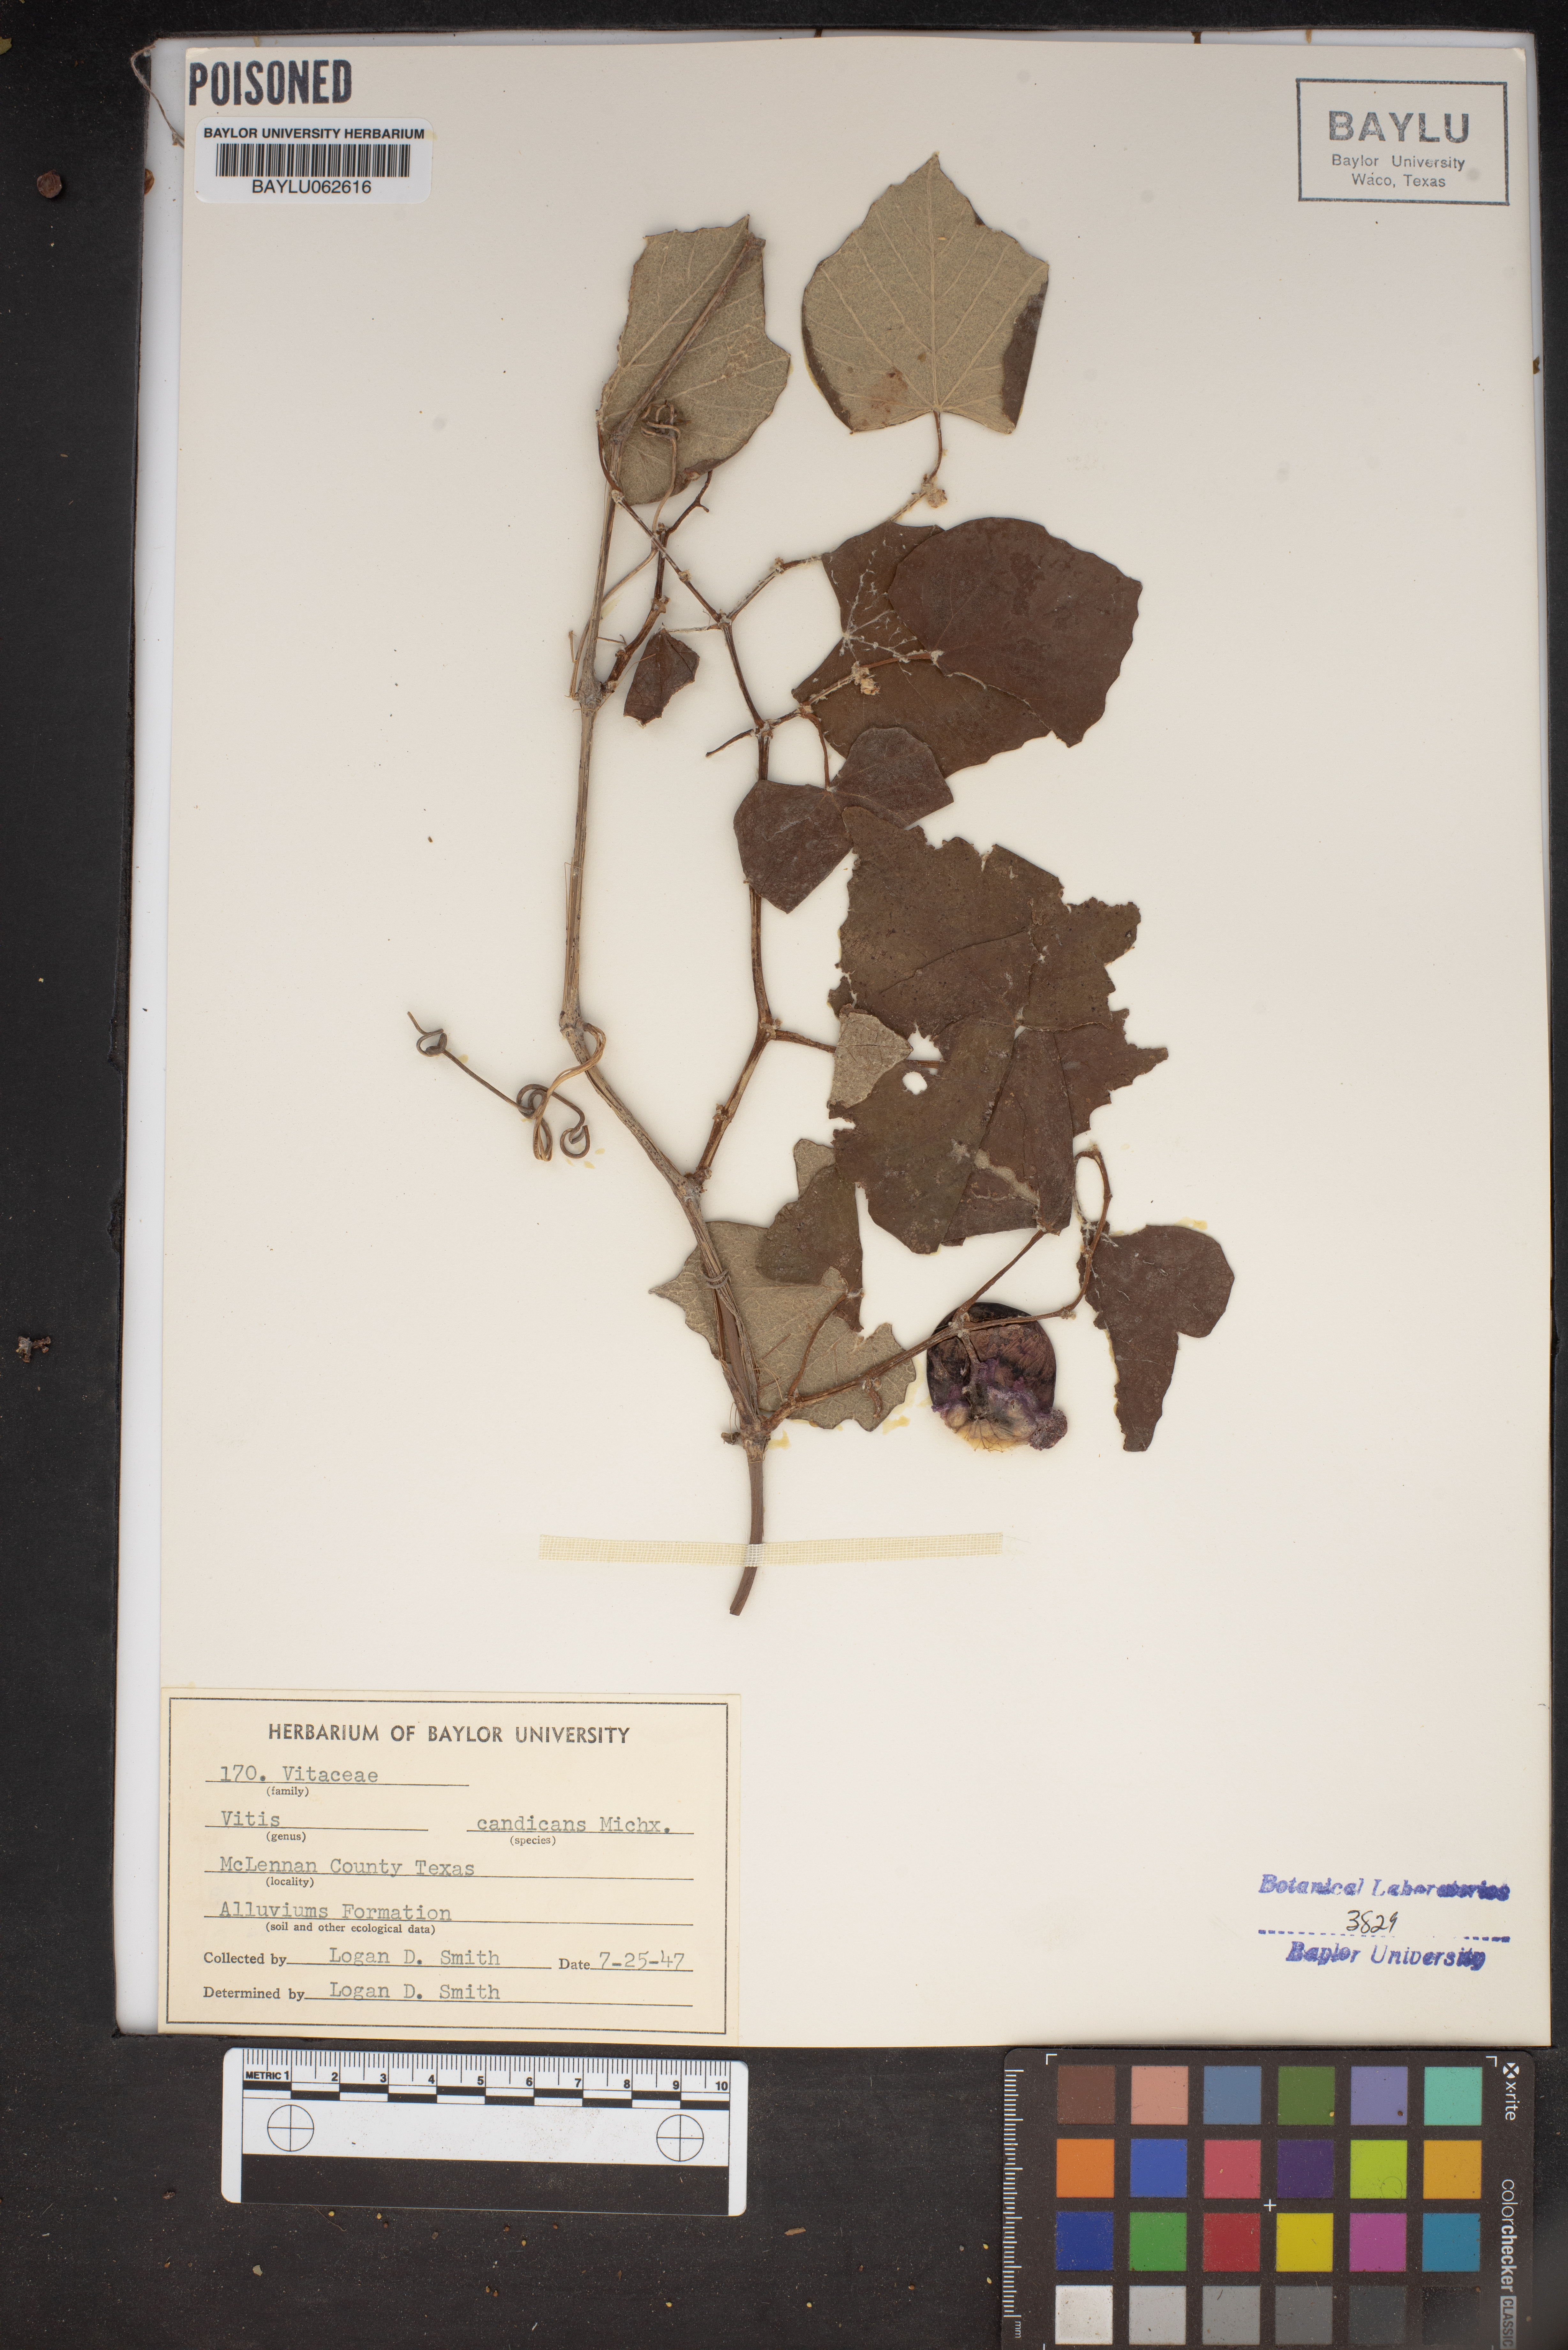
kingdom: Plantae
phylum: Tracheophyta
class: Magnoliopsida
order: Vitales
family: Vitaceae
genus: Vitis
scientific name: Vitis mustangensis
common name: Mustang grape
